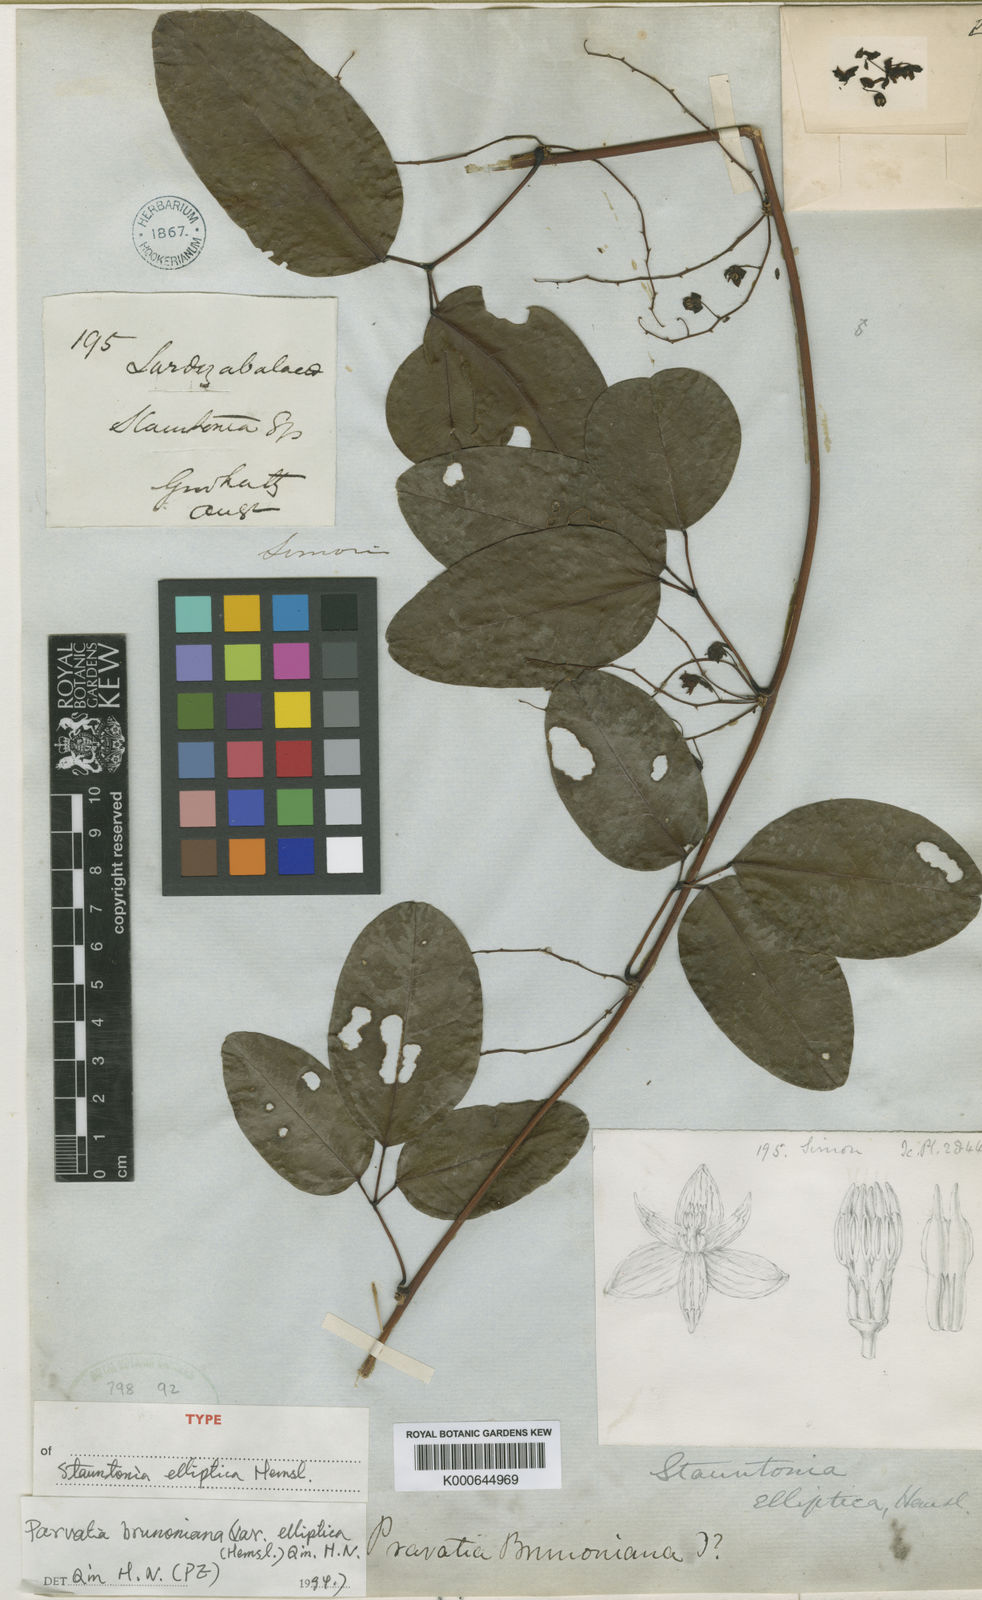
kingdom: Plantae
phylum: Tracheophyta
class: Magnoliopsida
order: Ranunculales
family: Lardizabalaceae
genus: Stauntonia
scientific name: Stauntonia elliptica
